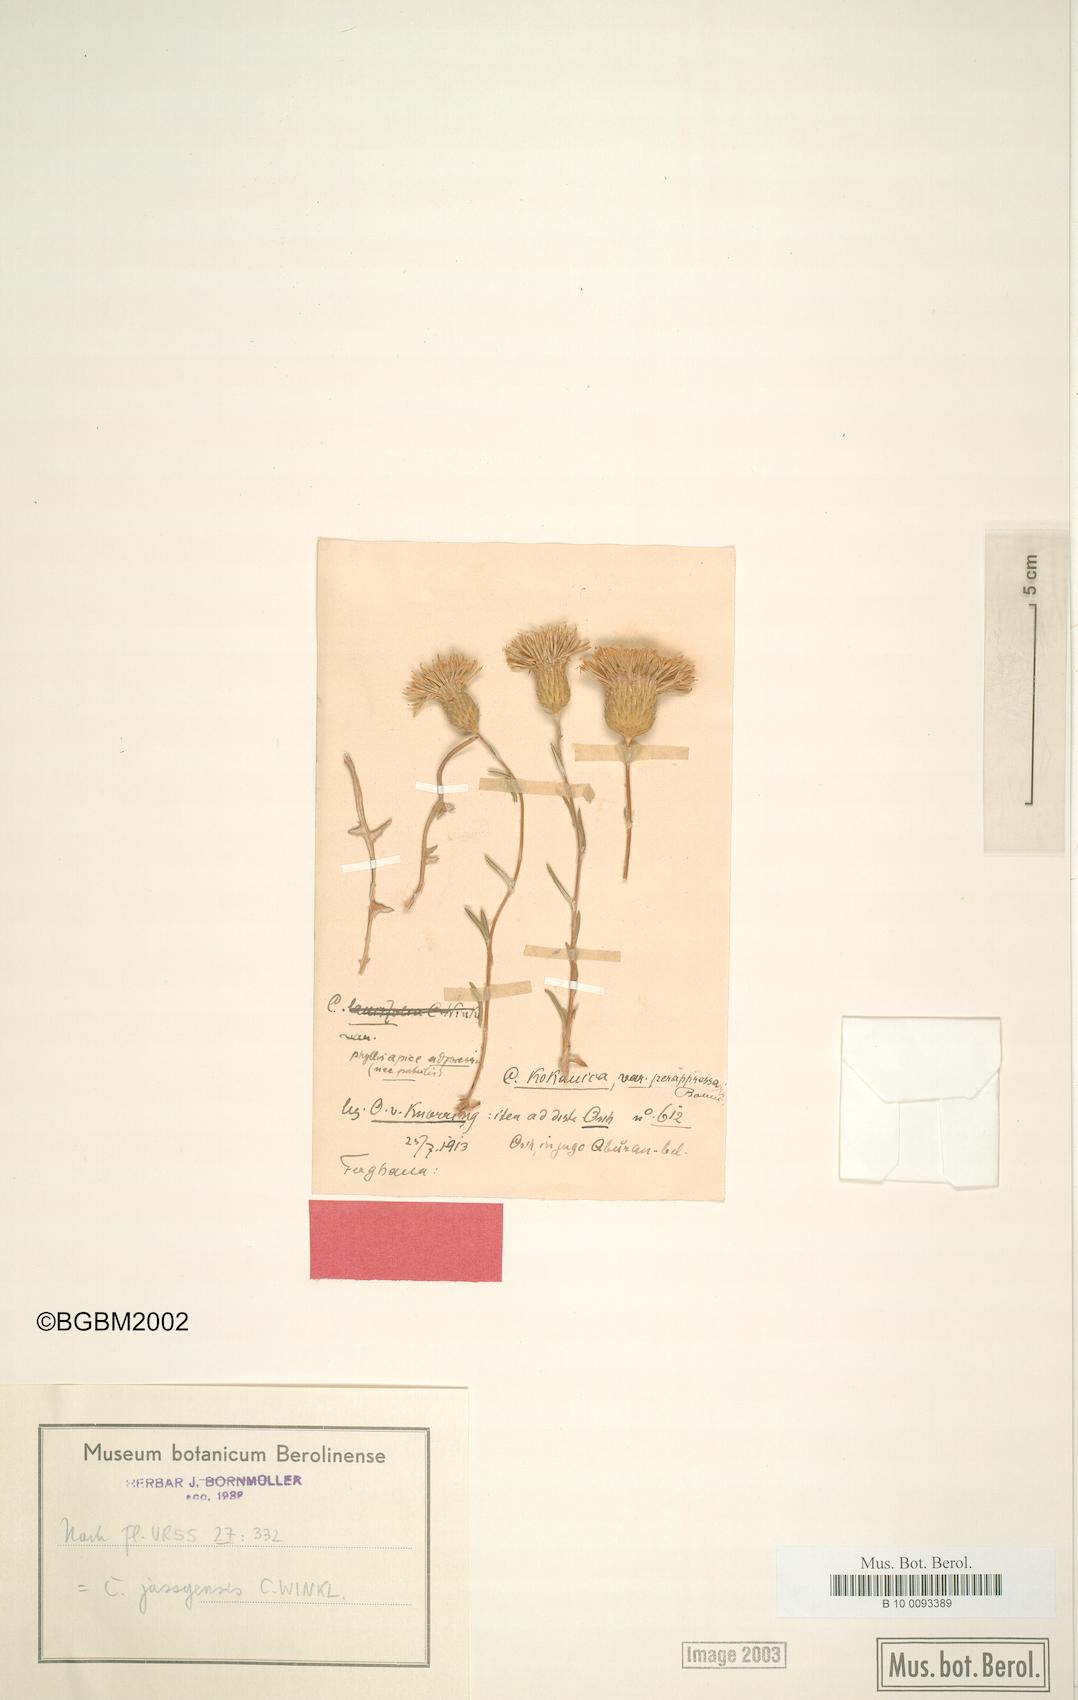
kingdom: Plantae
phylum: Tracheophyta
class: Magnoliopsida
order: Asterales
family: Asteraceae
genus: Cousinia
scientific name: Cousinia jassyensis
